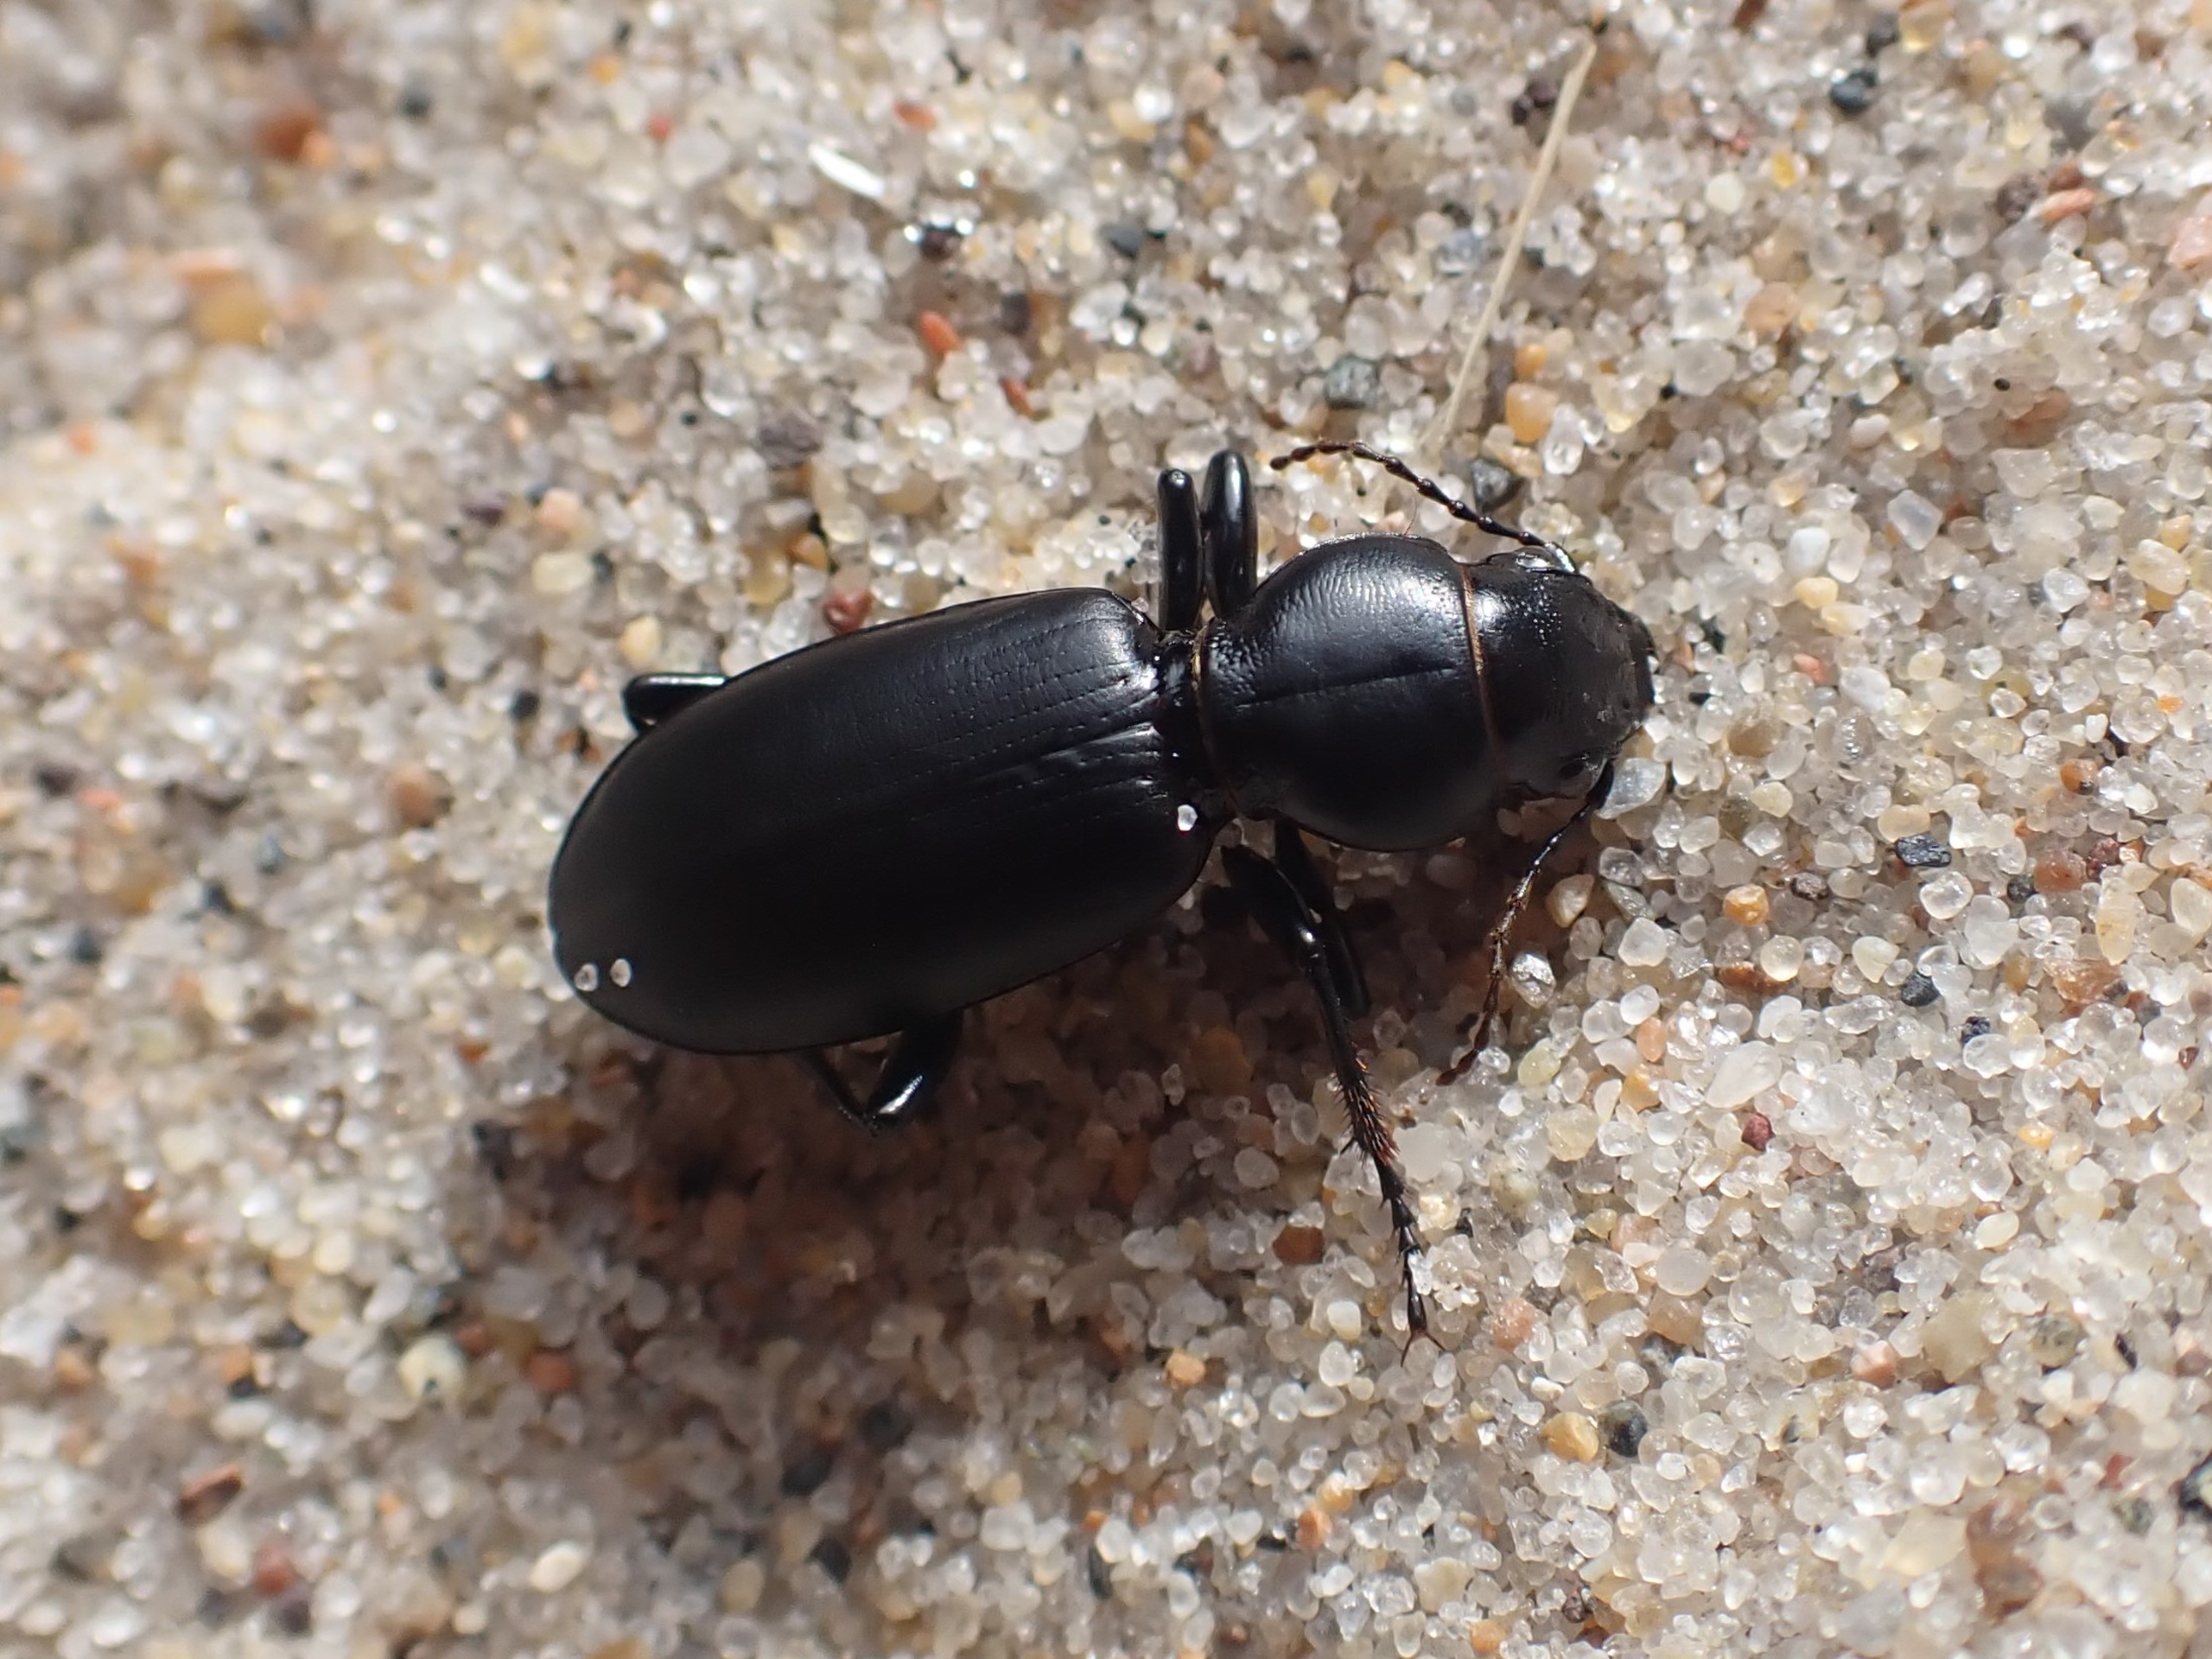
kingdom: Animalia
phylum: Arthropoda
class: Insecta
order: Coleoptera
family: Carabidae
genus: Broscus
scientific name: Broscus cephalotes
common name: Sandgraver
